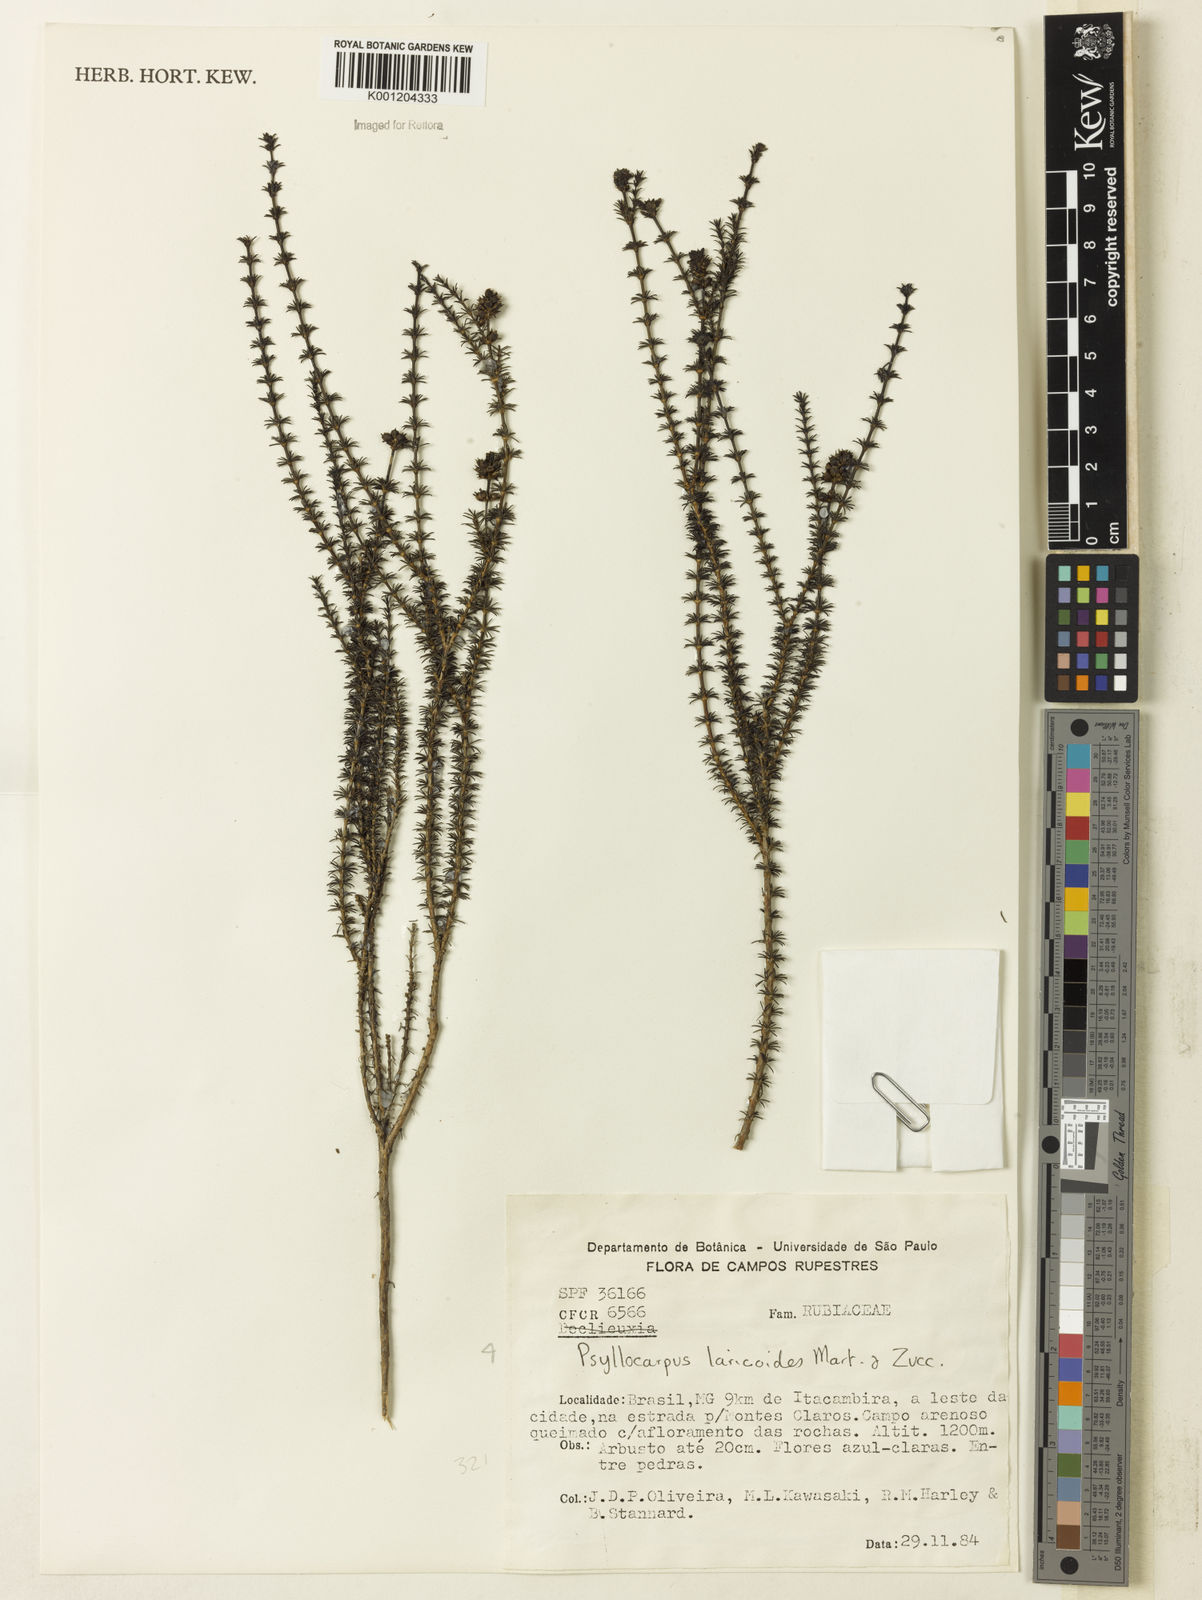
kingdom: Plantae
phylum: Tracheophyta
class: Magnoliopsida
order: Gentianales
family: Rubiaceae
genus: Psyllocarpus
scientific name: Psyllocarpus laricoides
